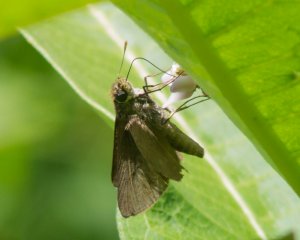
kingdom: Animalia
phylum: Arthropoda
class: Insecta
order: Lepidoptera
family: Hesperiidae
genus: Euphyes
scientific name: Euphyes vestris
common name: Dun Skipper
